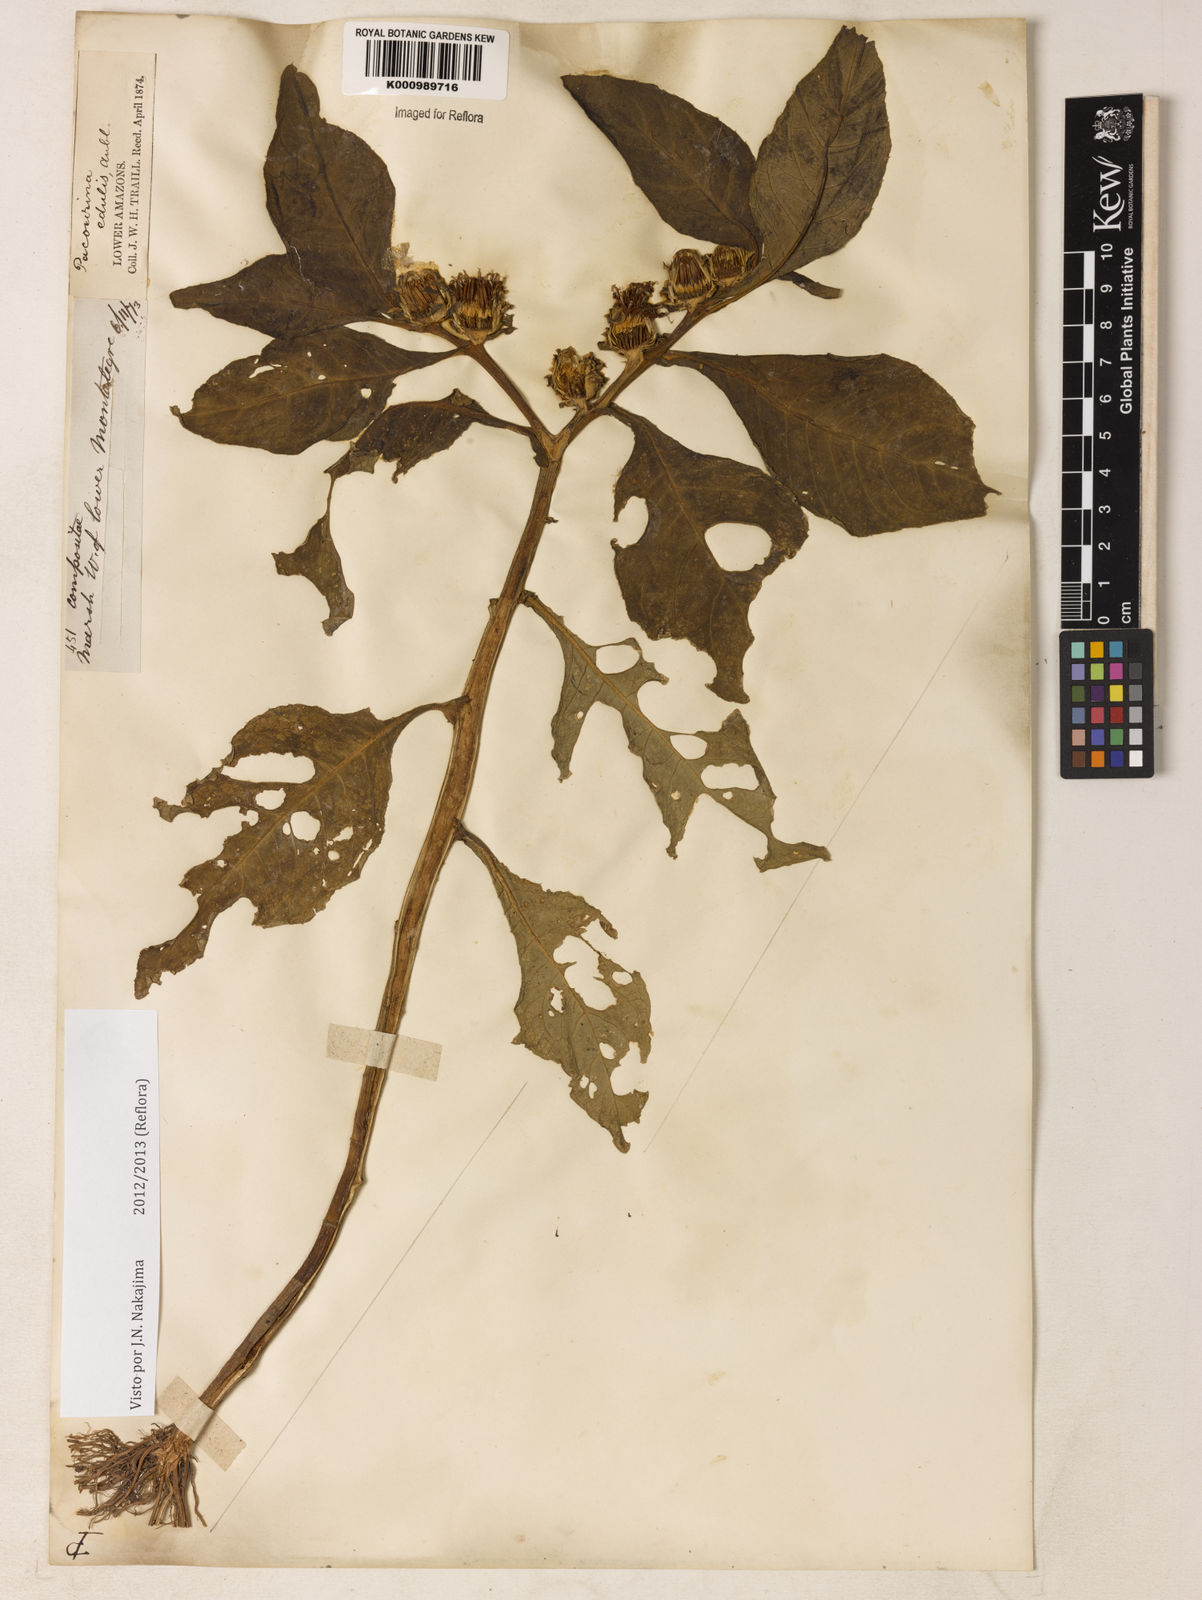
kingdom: Plantae
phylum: Tracheophyta
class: Magnoliopsida
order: Asterales
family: Asteraceae
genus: Pacourina
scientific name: Pacourina edulis
